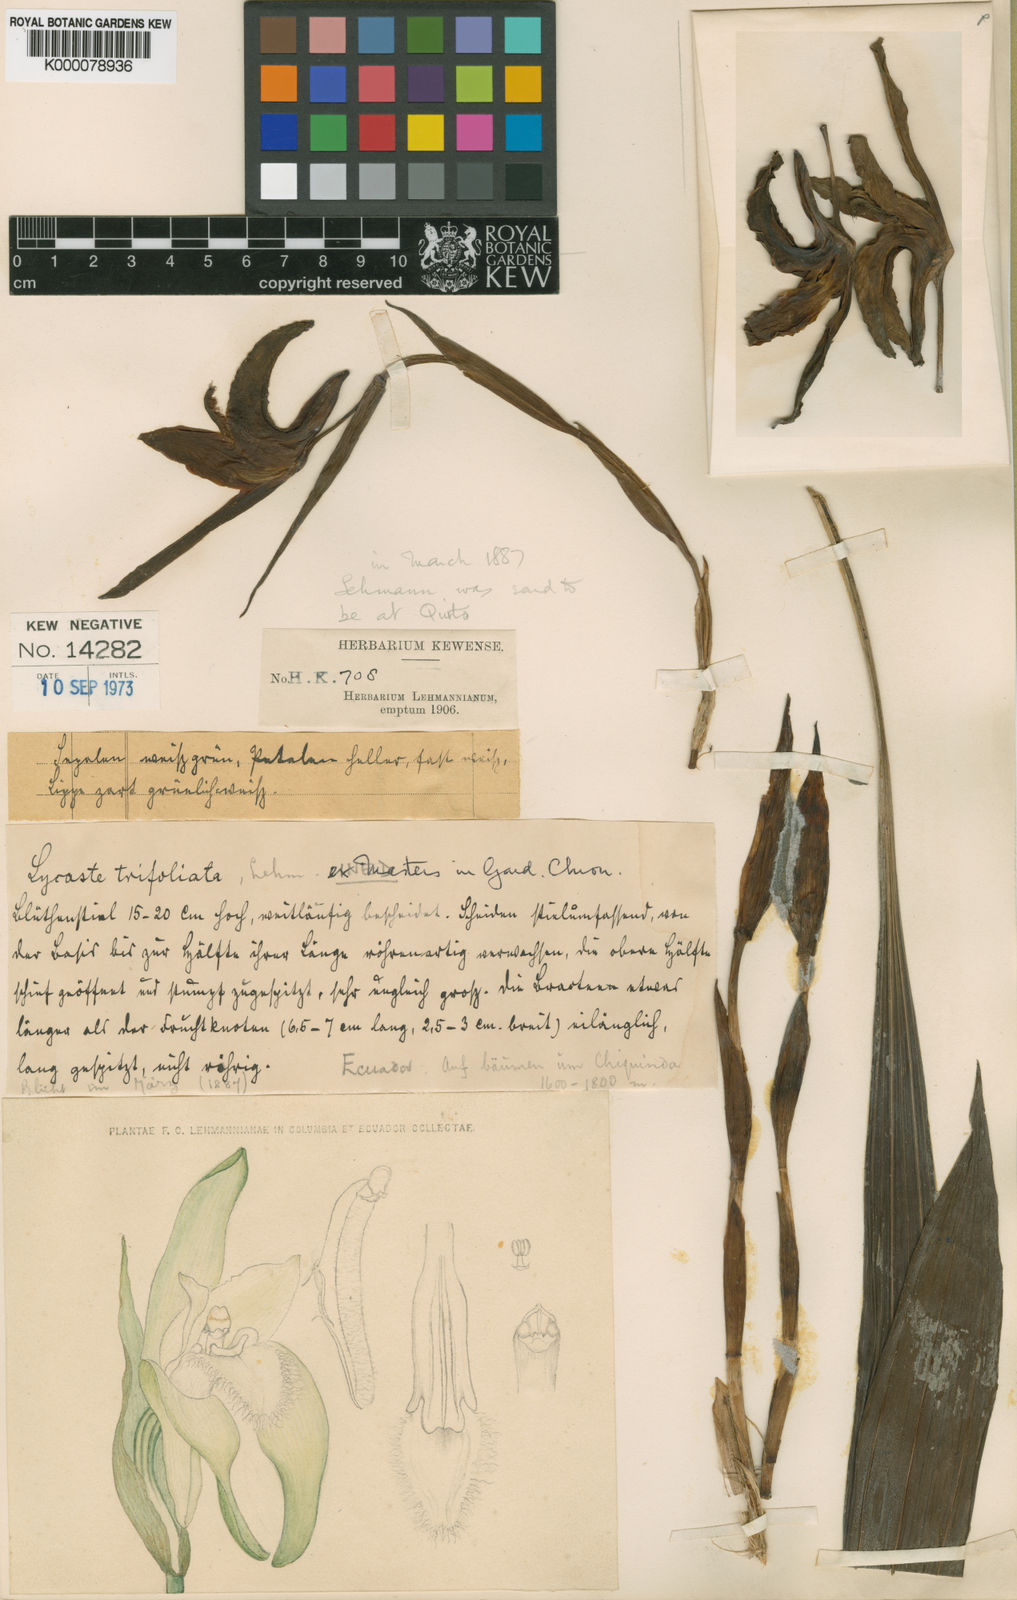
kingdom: Plantae
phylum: Tracheophyta
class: Liliopsida
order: Asparagales
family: Orchidaceae
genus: Ida
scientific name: Ida cobbiana
